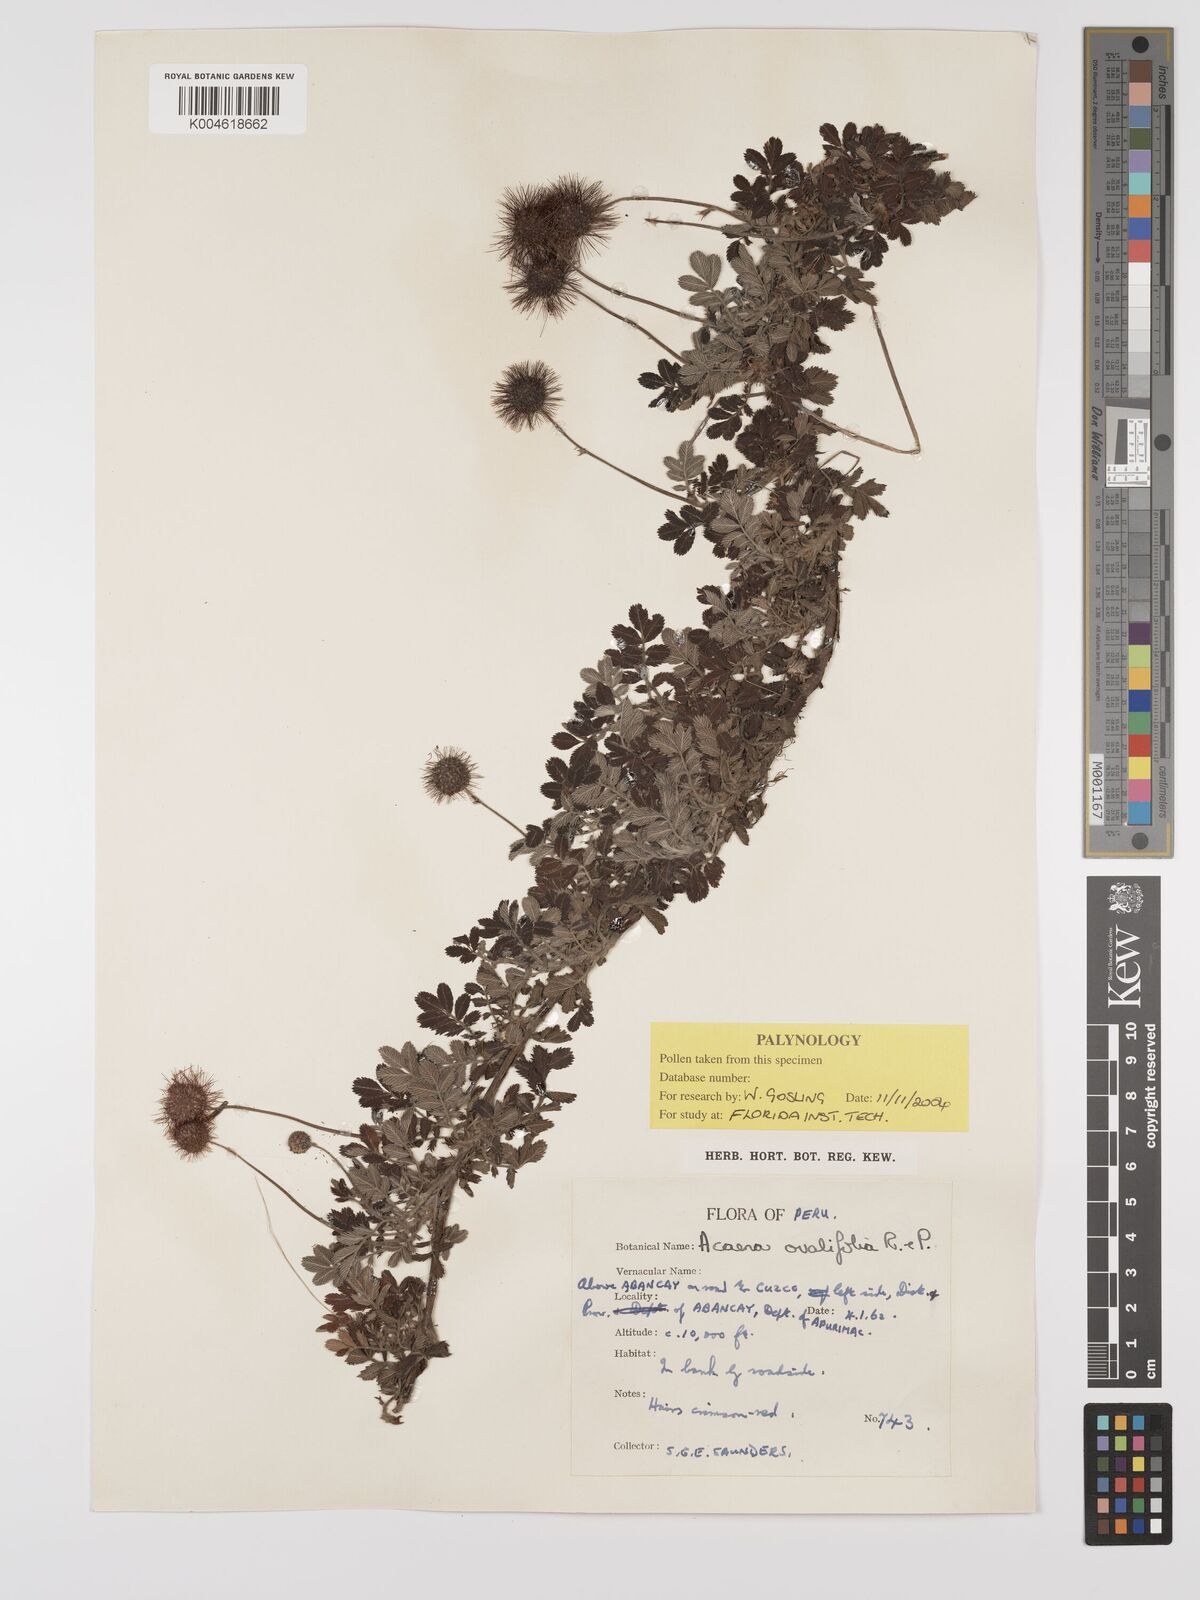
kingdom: Plantae
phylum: Tracheophyta
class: Magnoliopsida
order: Rosales
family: Rosaceae
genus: Acaena
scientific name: Acaena ovalifolia
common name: Two-spined acaena
